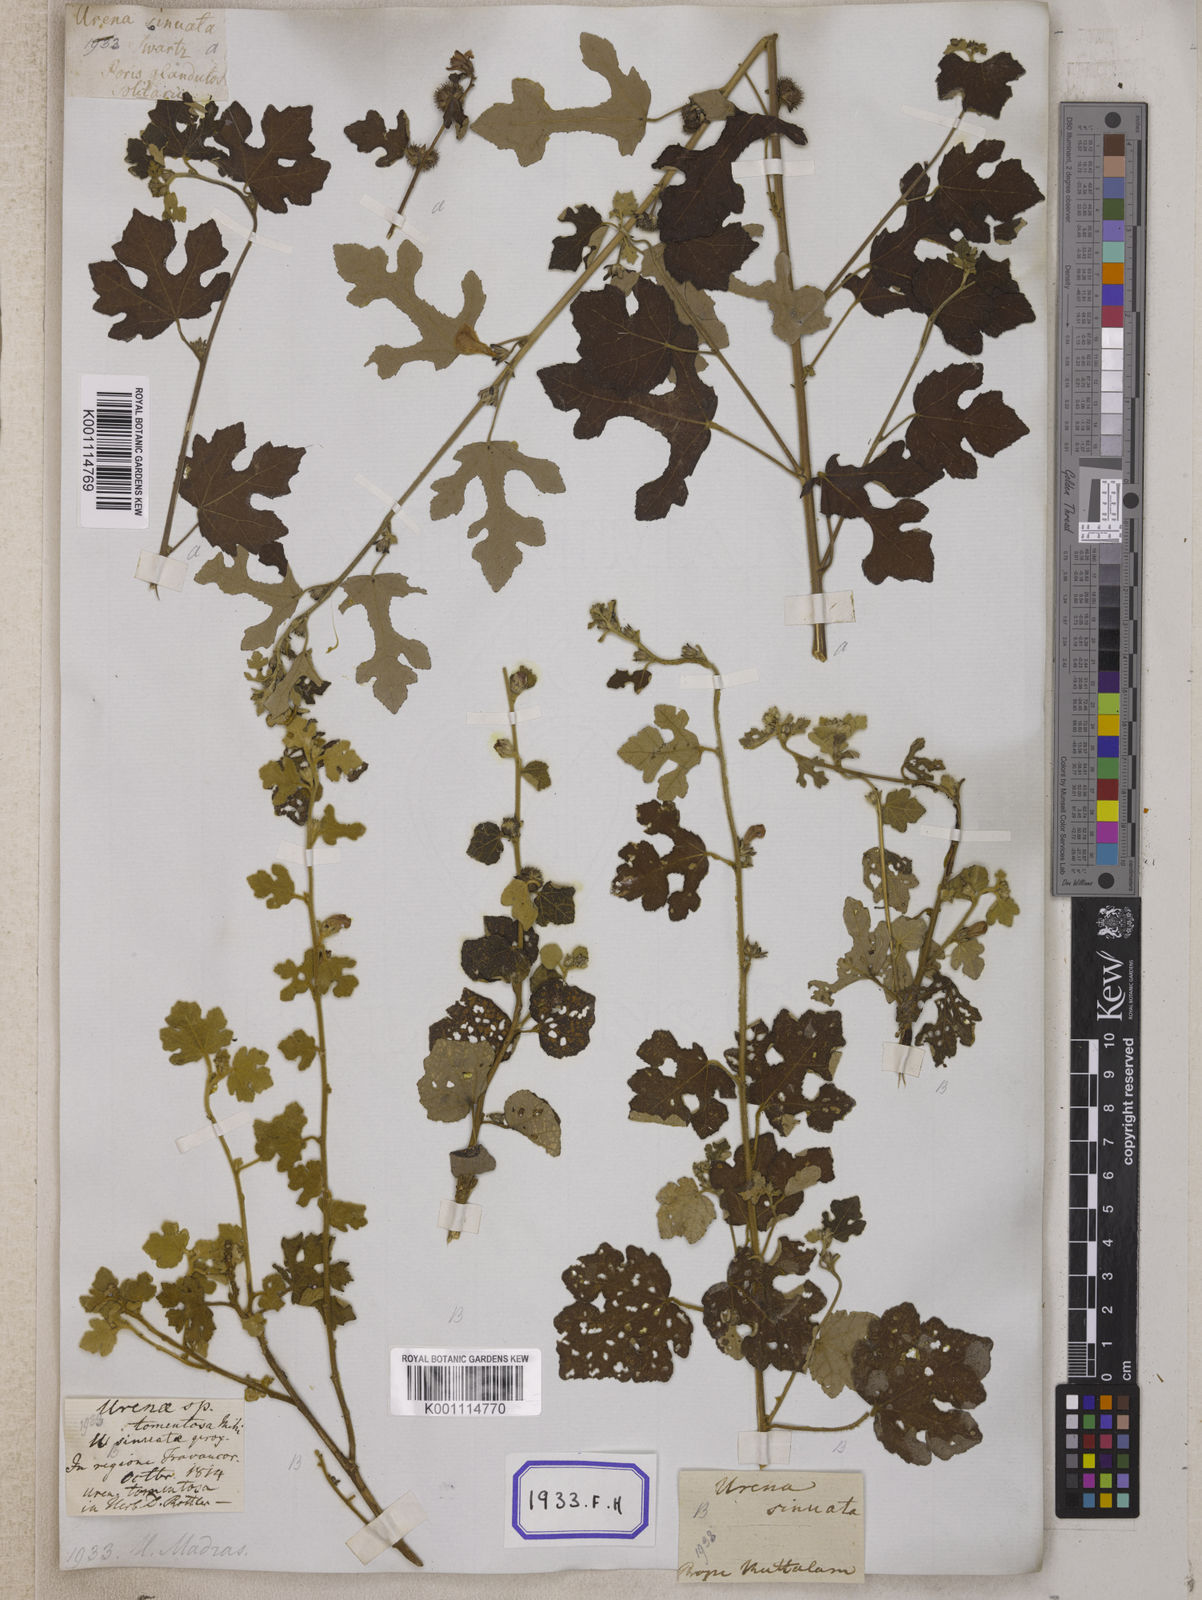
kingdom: Plantae
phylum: Tracheophyta
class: Magnoliopsida
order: Malvales
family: Malvaceae
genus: Urena
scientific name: Urena procumbens
